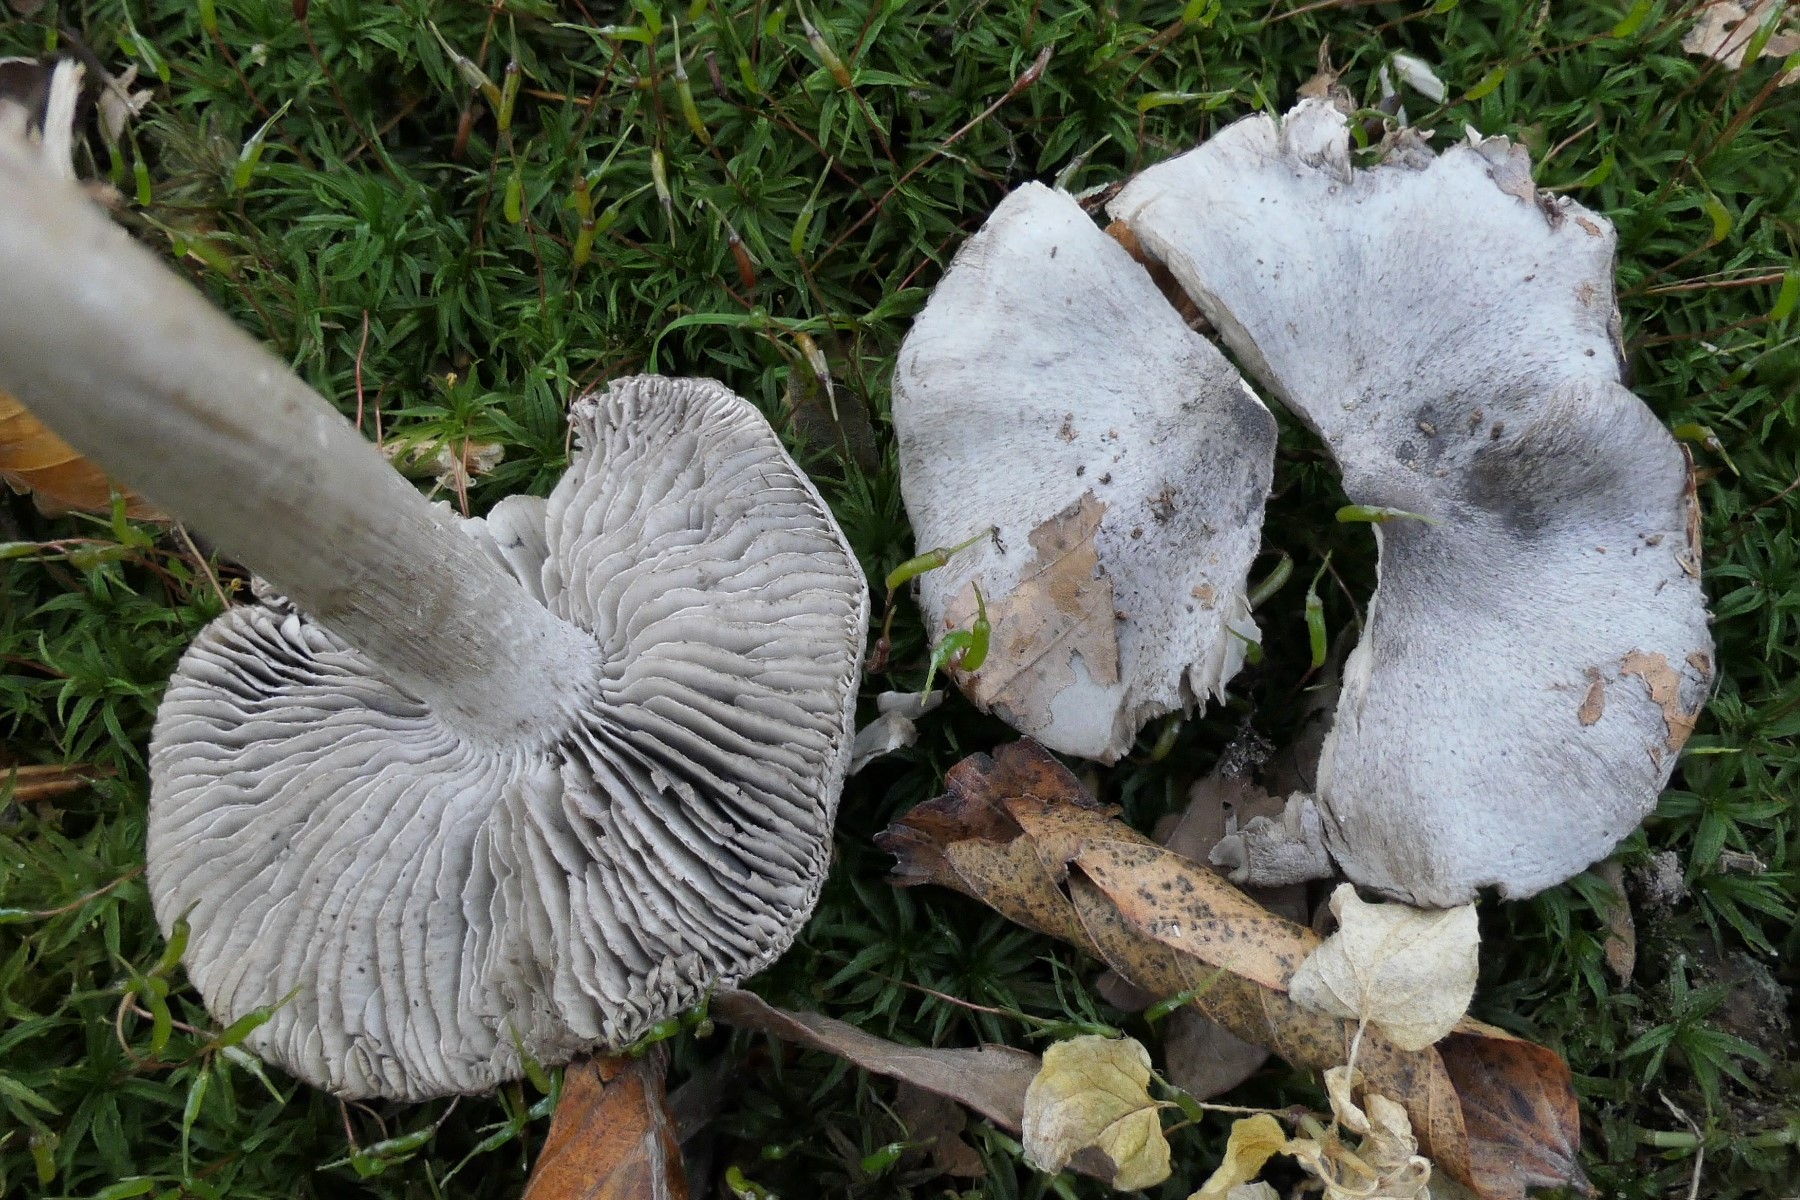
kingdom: Fungi
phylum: Basidiomycota
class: Agaricomycetes
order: Agaricales
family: Tricholomataceae
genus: Tricholoma
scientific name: Tricholoma sciodes
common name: stribet ridderhat
